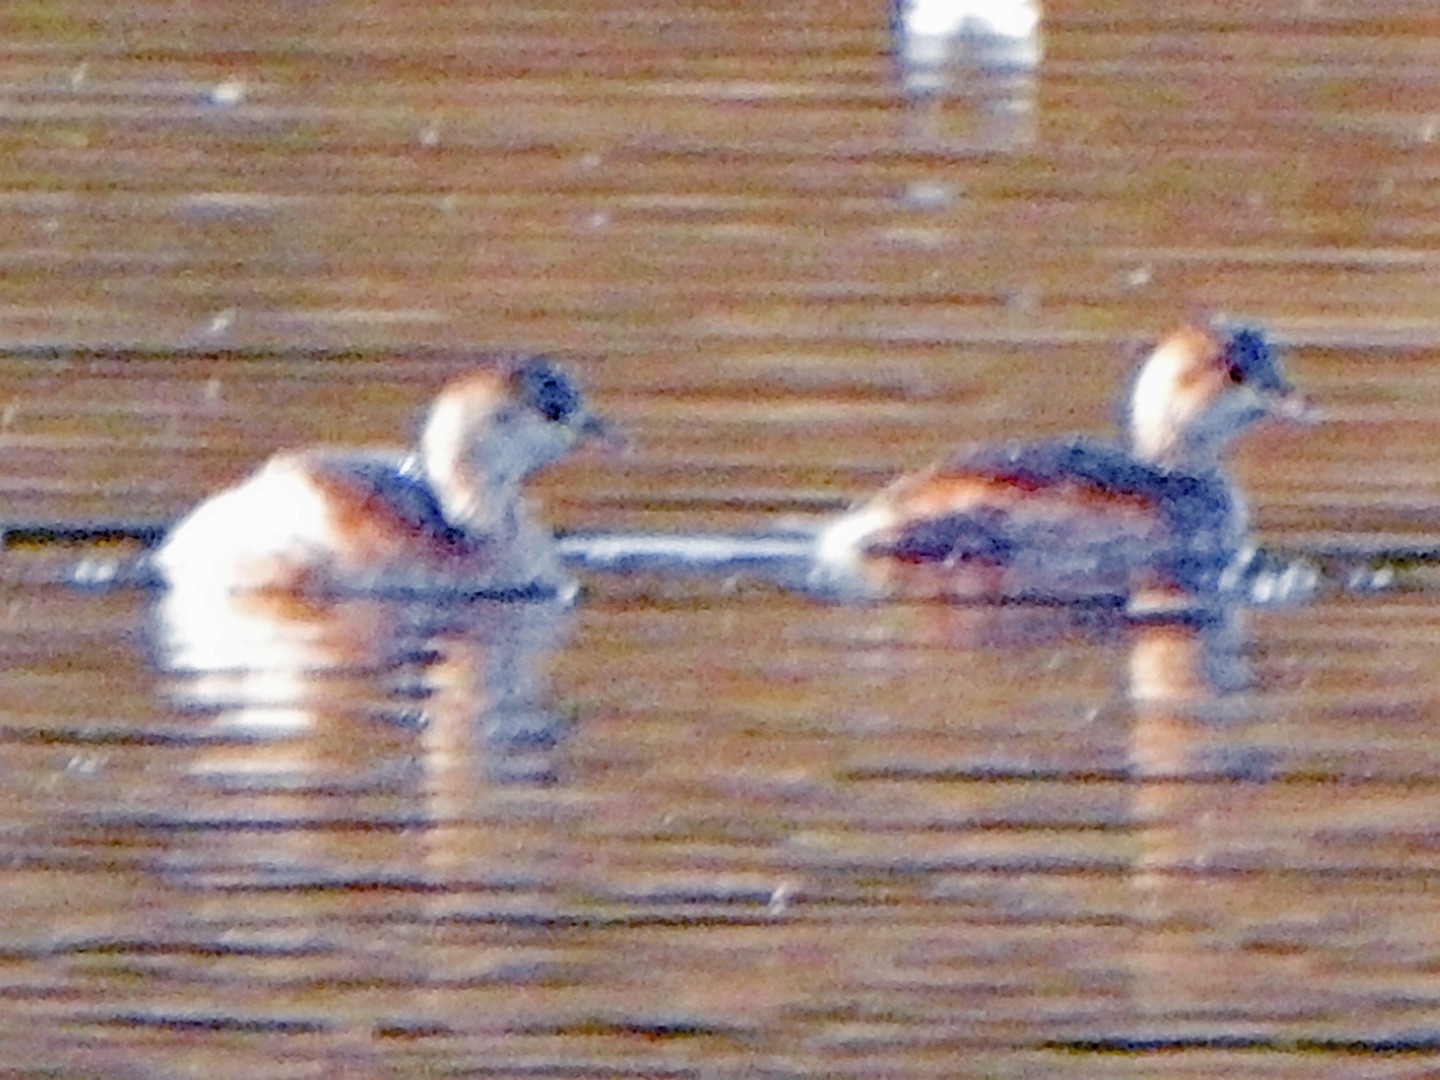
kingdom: Animalia
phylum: Chordata
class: Aves
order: Podicipediformes
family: Podicipedidae
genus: Tachybaptus
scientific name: Tachybaptus ruficollis
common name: Lille lappedykker
